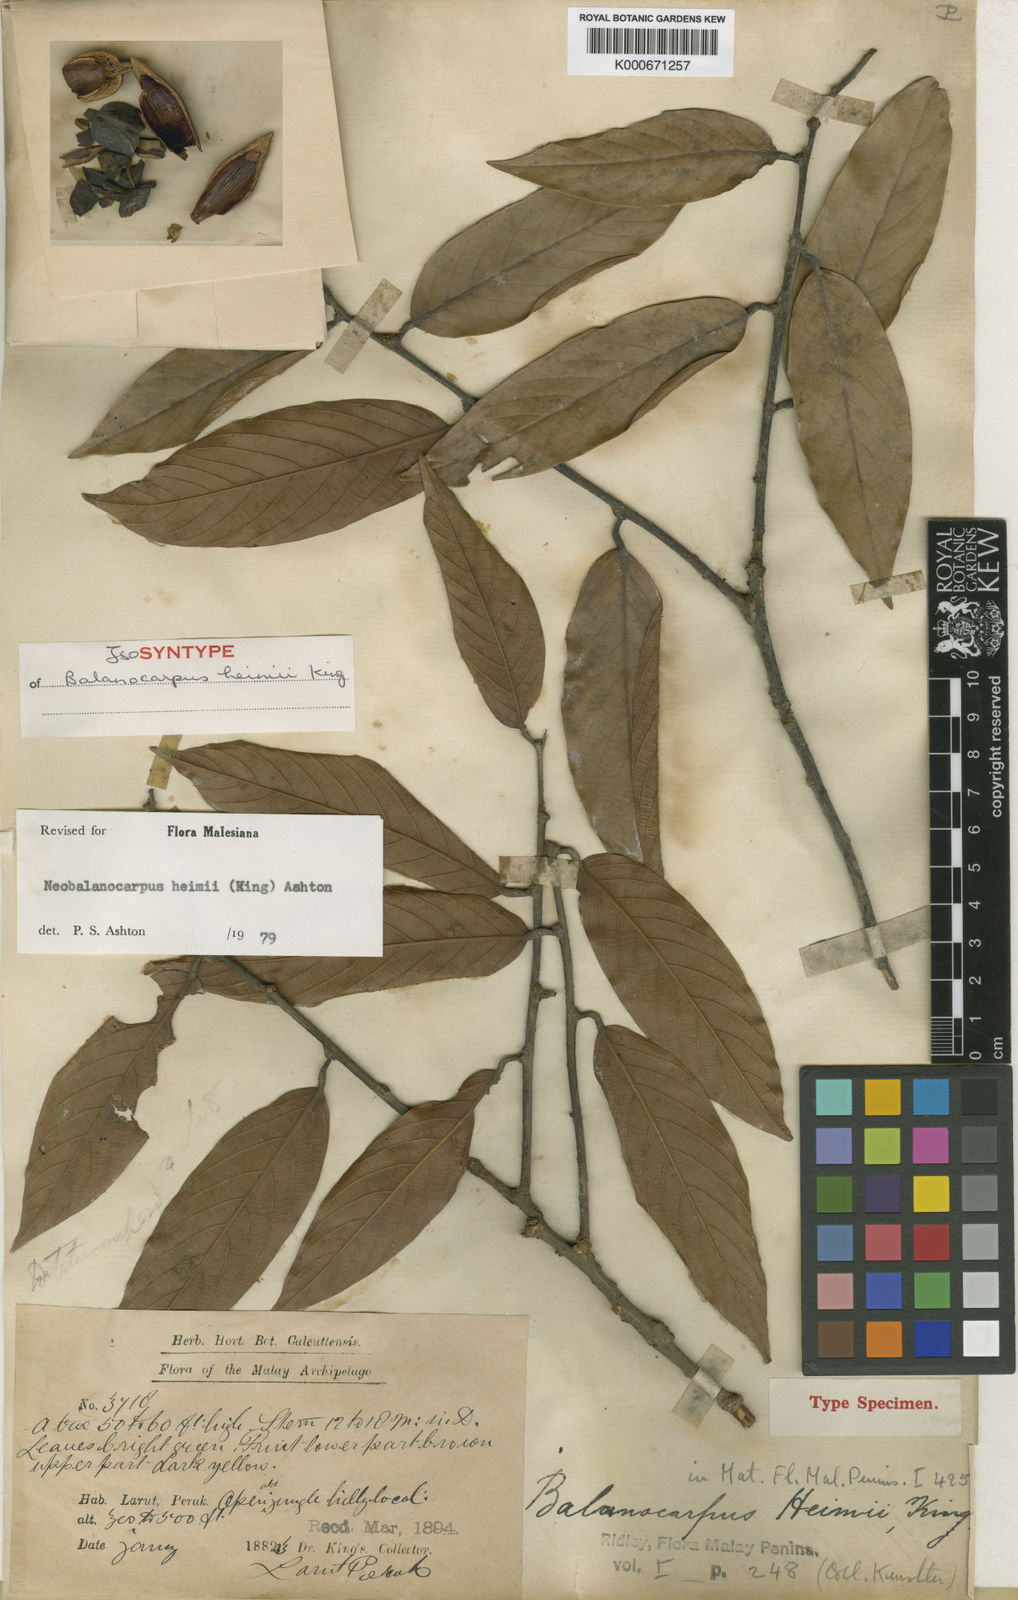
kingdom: Plantae
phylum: Tracheophyta
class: Magnoliopsida
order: Malvales
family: Dipterocarpaceae
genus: Neobalanocarpus
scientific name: Neobalanocarpus
